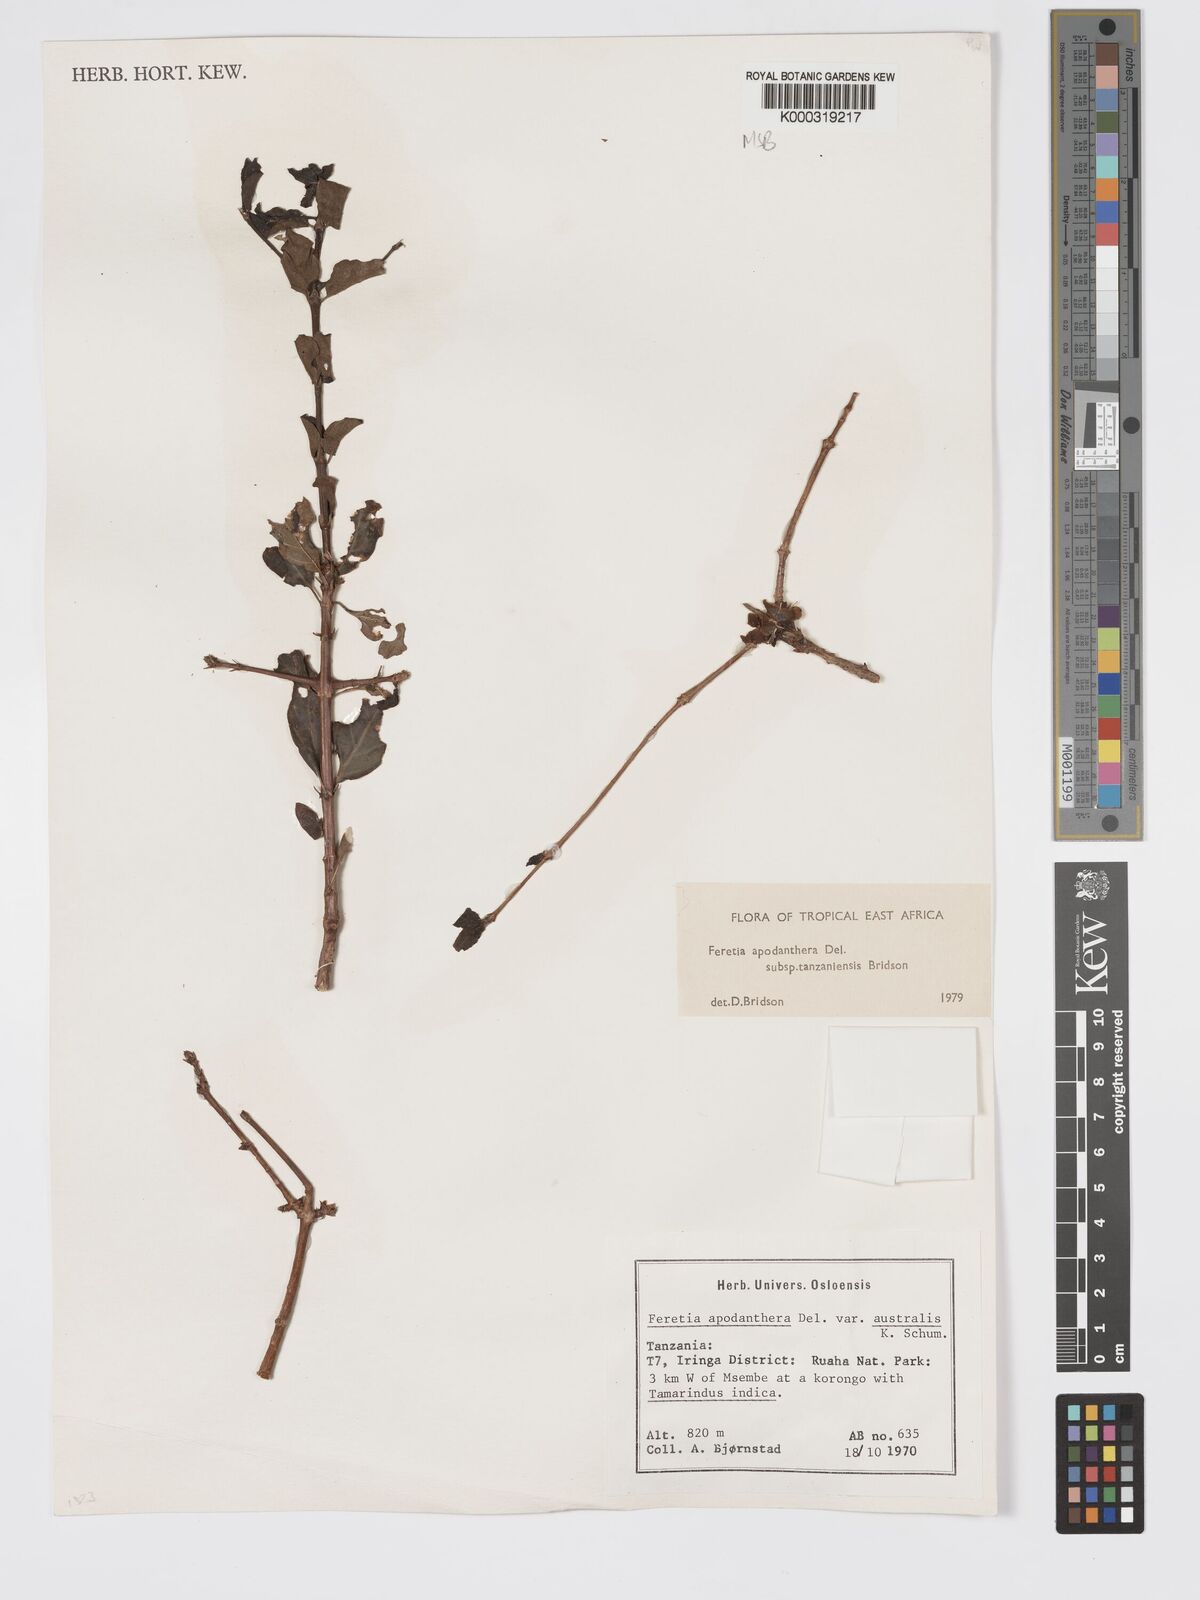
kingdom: Plantae
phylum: Tracheophyta
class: Magnoliopsida
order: Gentianales
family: Rubiaceae
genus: Feretia
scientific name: Feretia apodanthera
